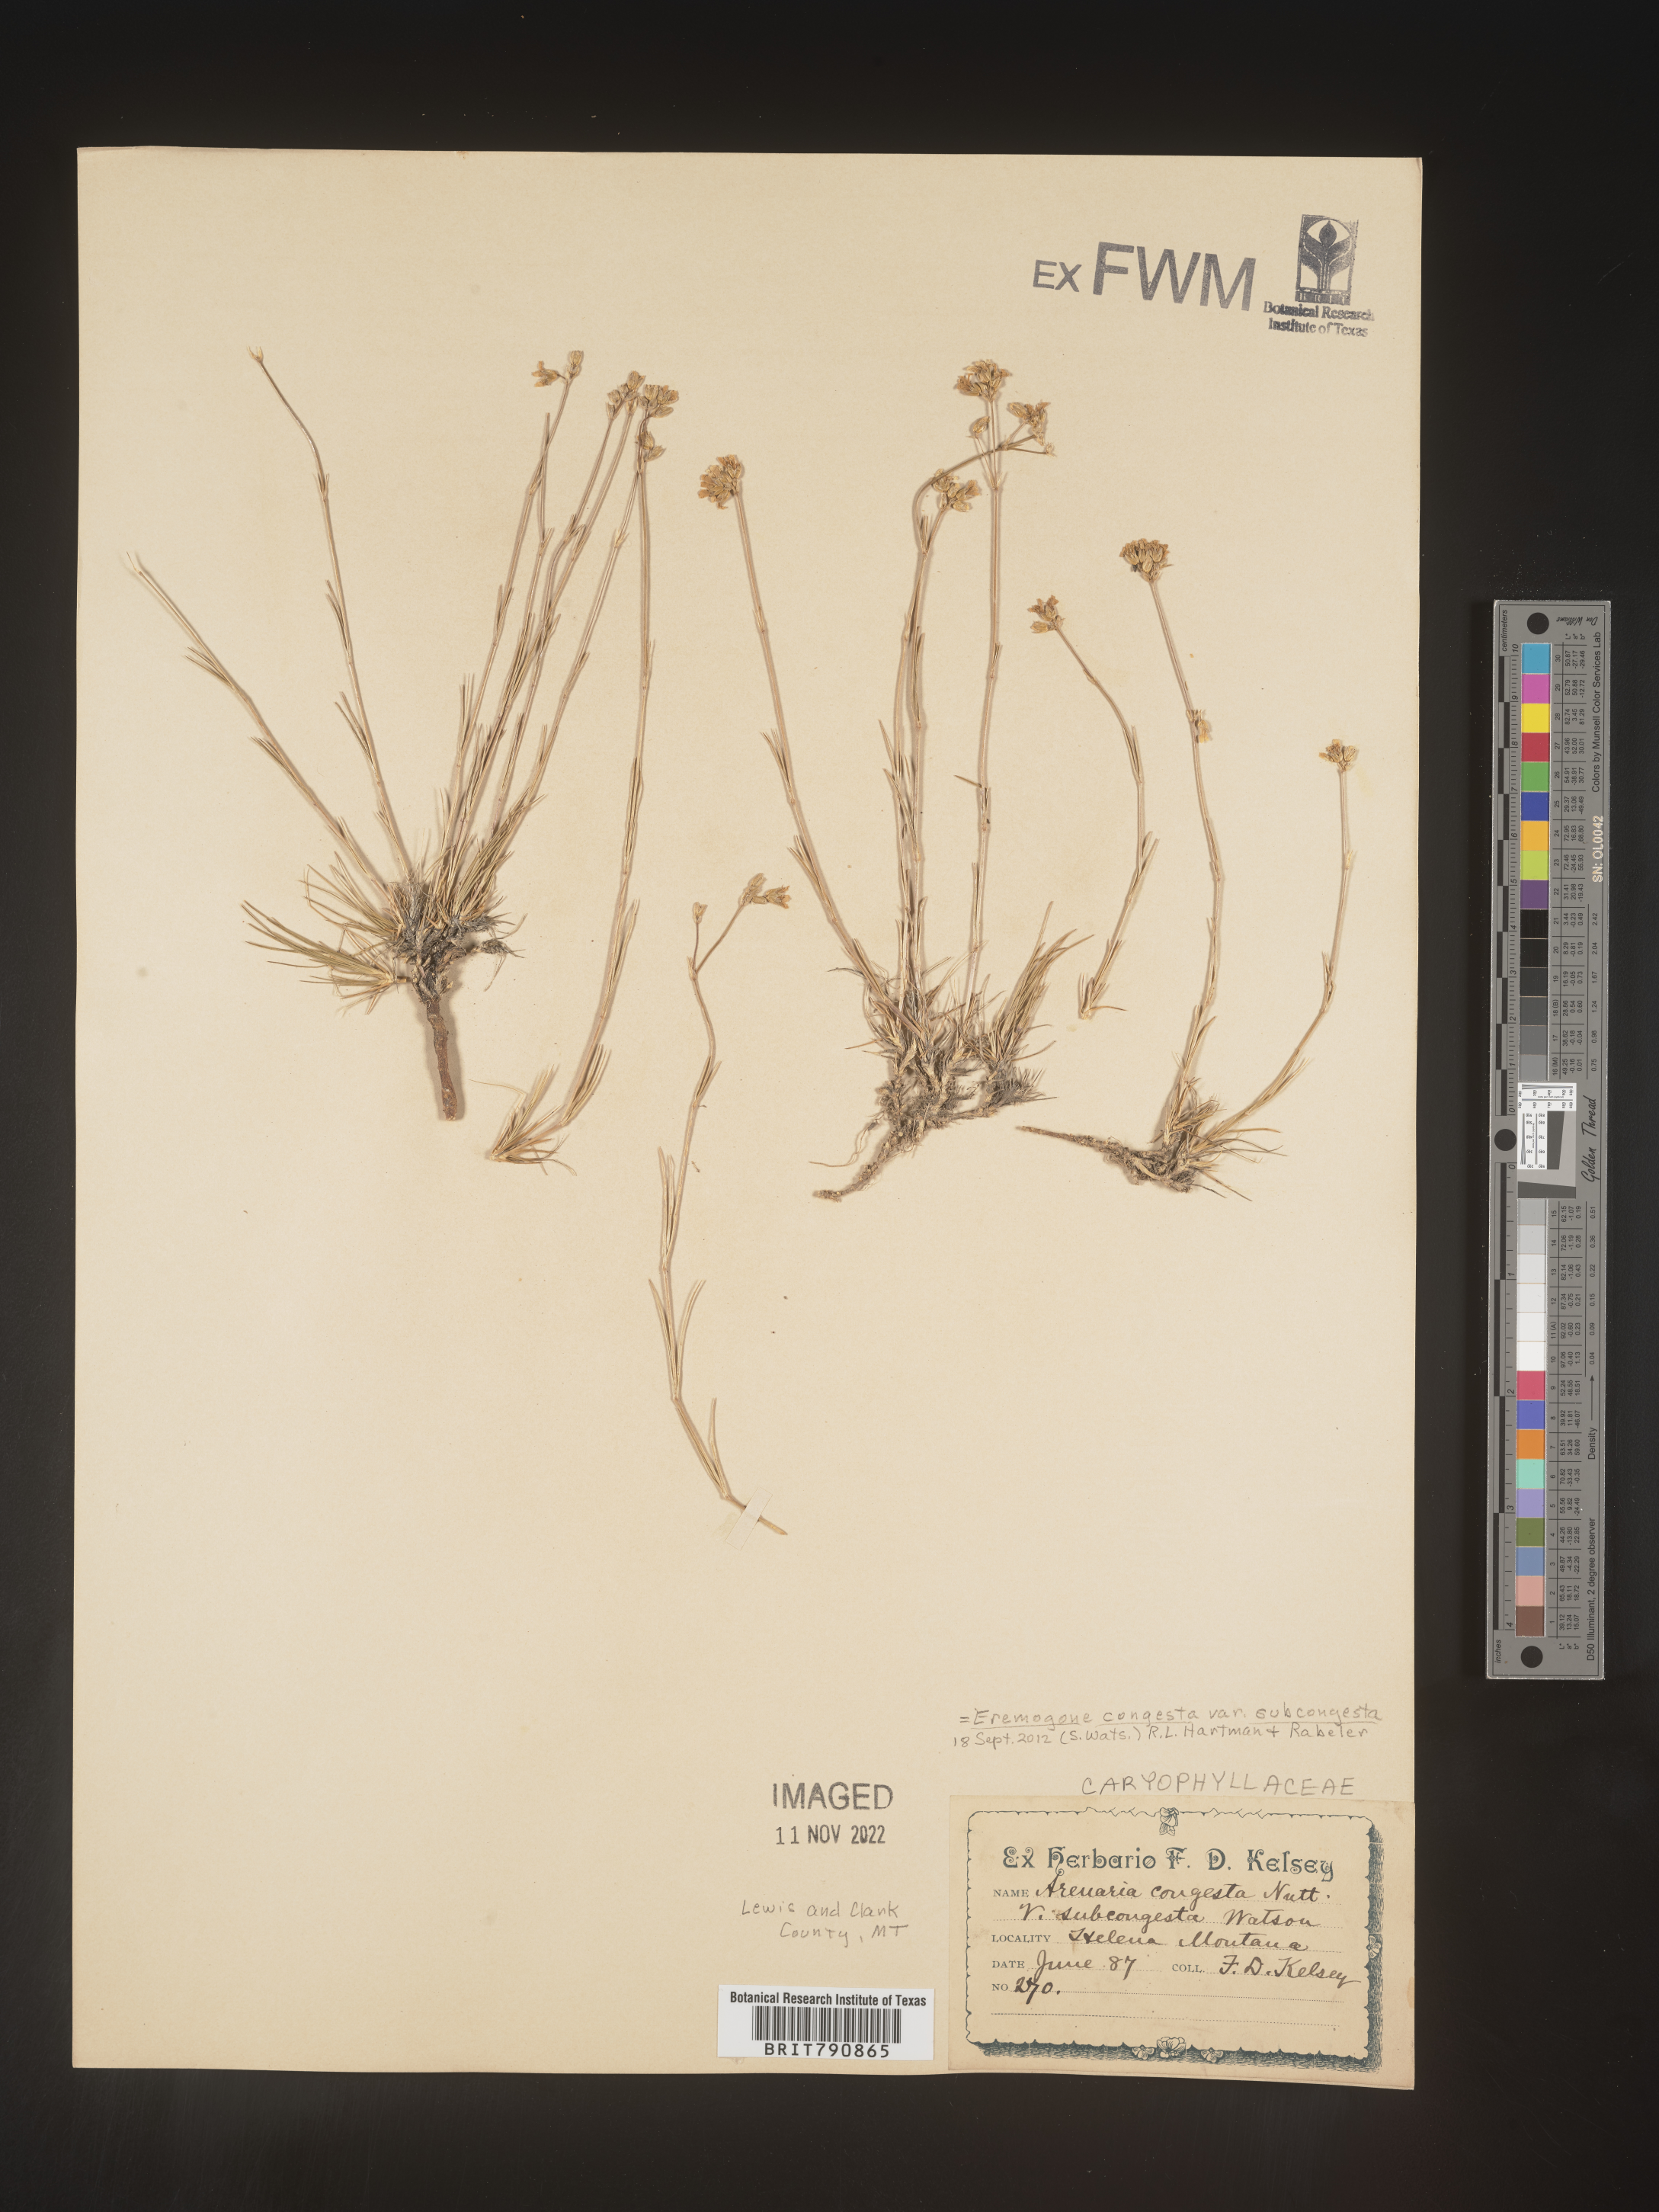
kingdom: Plantae
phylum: Tracheophyta
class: Magnoliopsida
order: Caryophyllales
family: Caryophyllaceae
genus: Eremogone
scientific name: Eremogone
